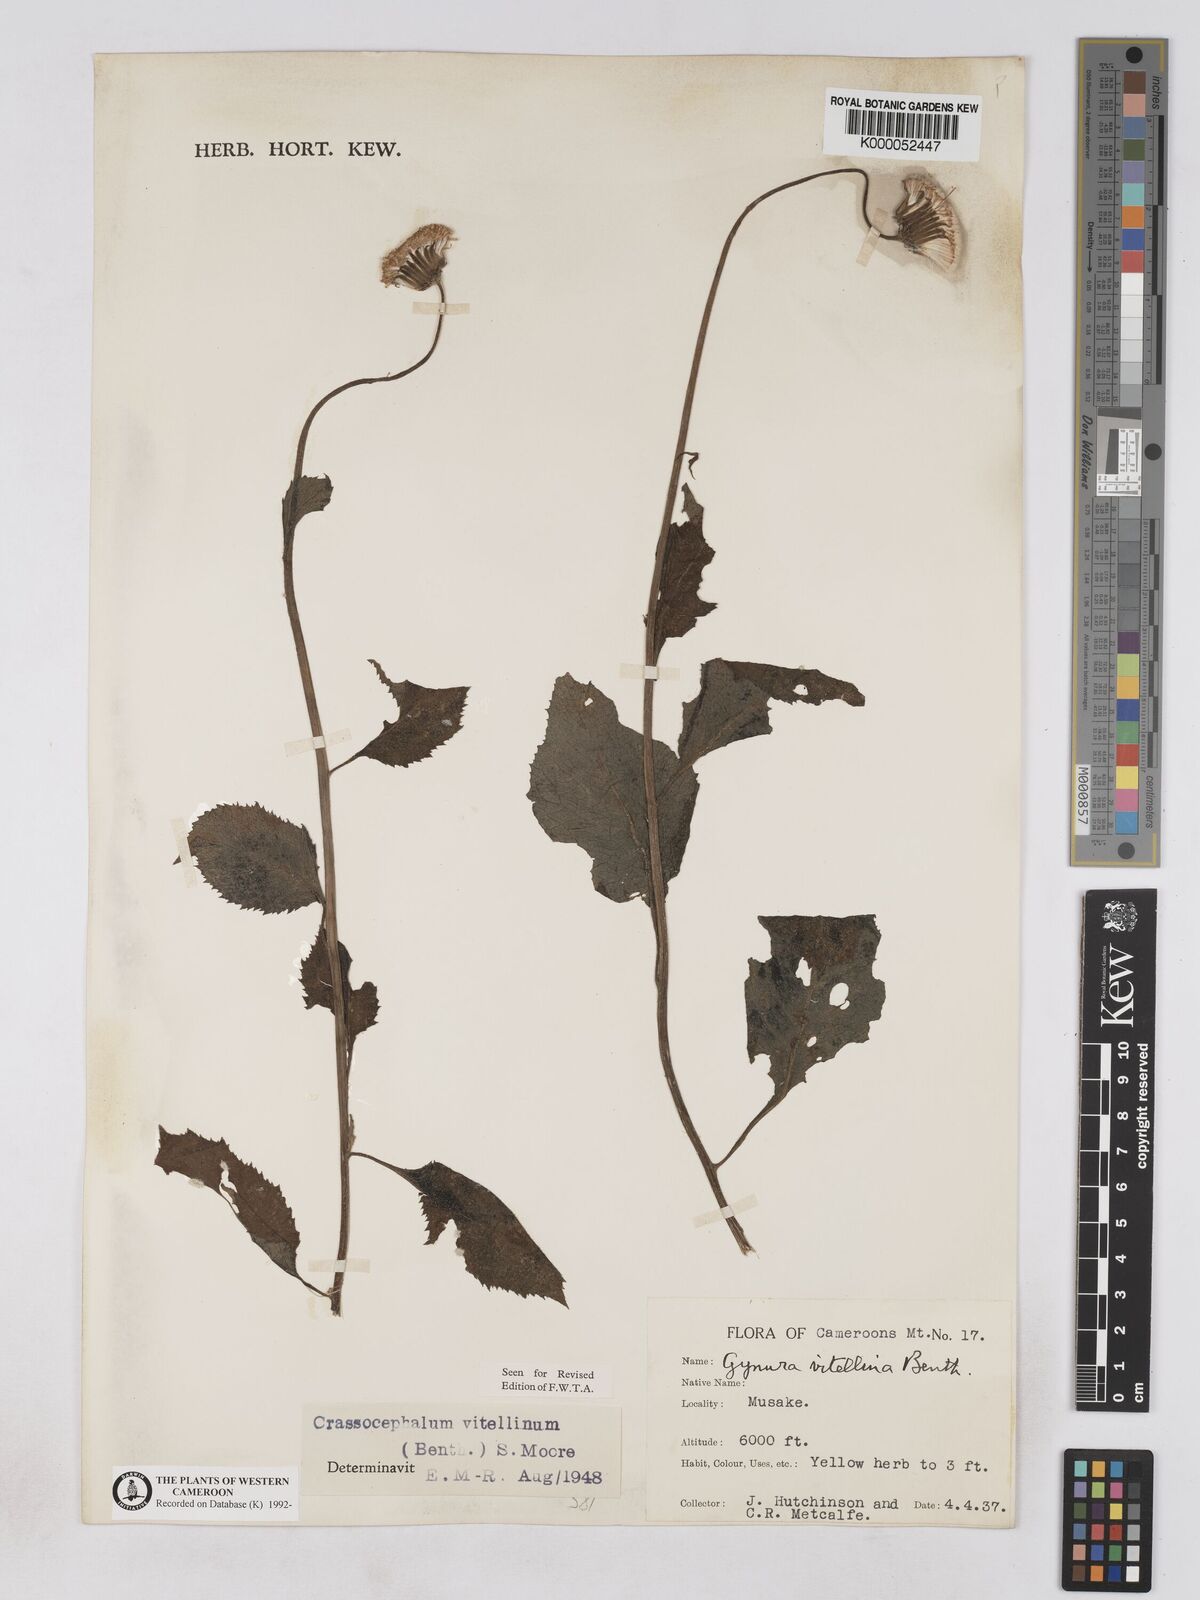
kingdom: Plantae
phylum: Tracheophyta
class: Magnoliopsida
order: Asterales
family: Asteraceae
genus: Crassocephalum
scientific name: Crassocephalum bougheyanum
